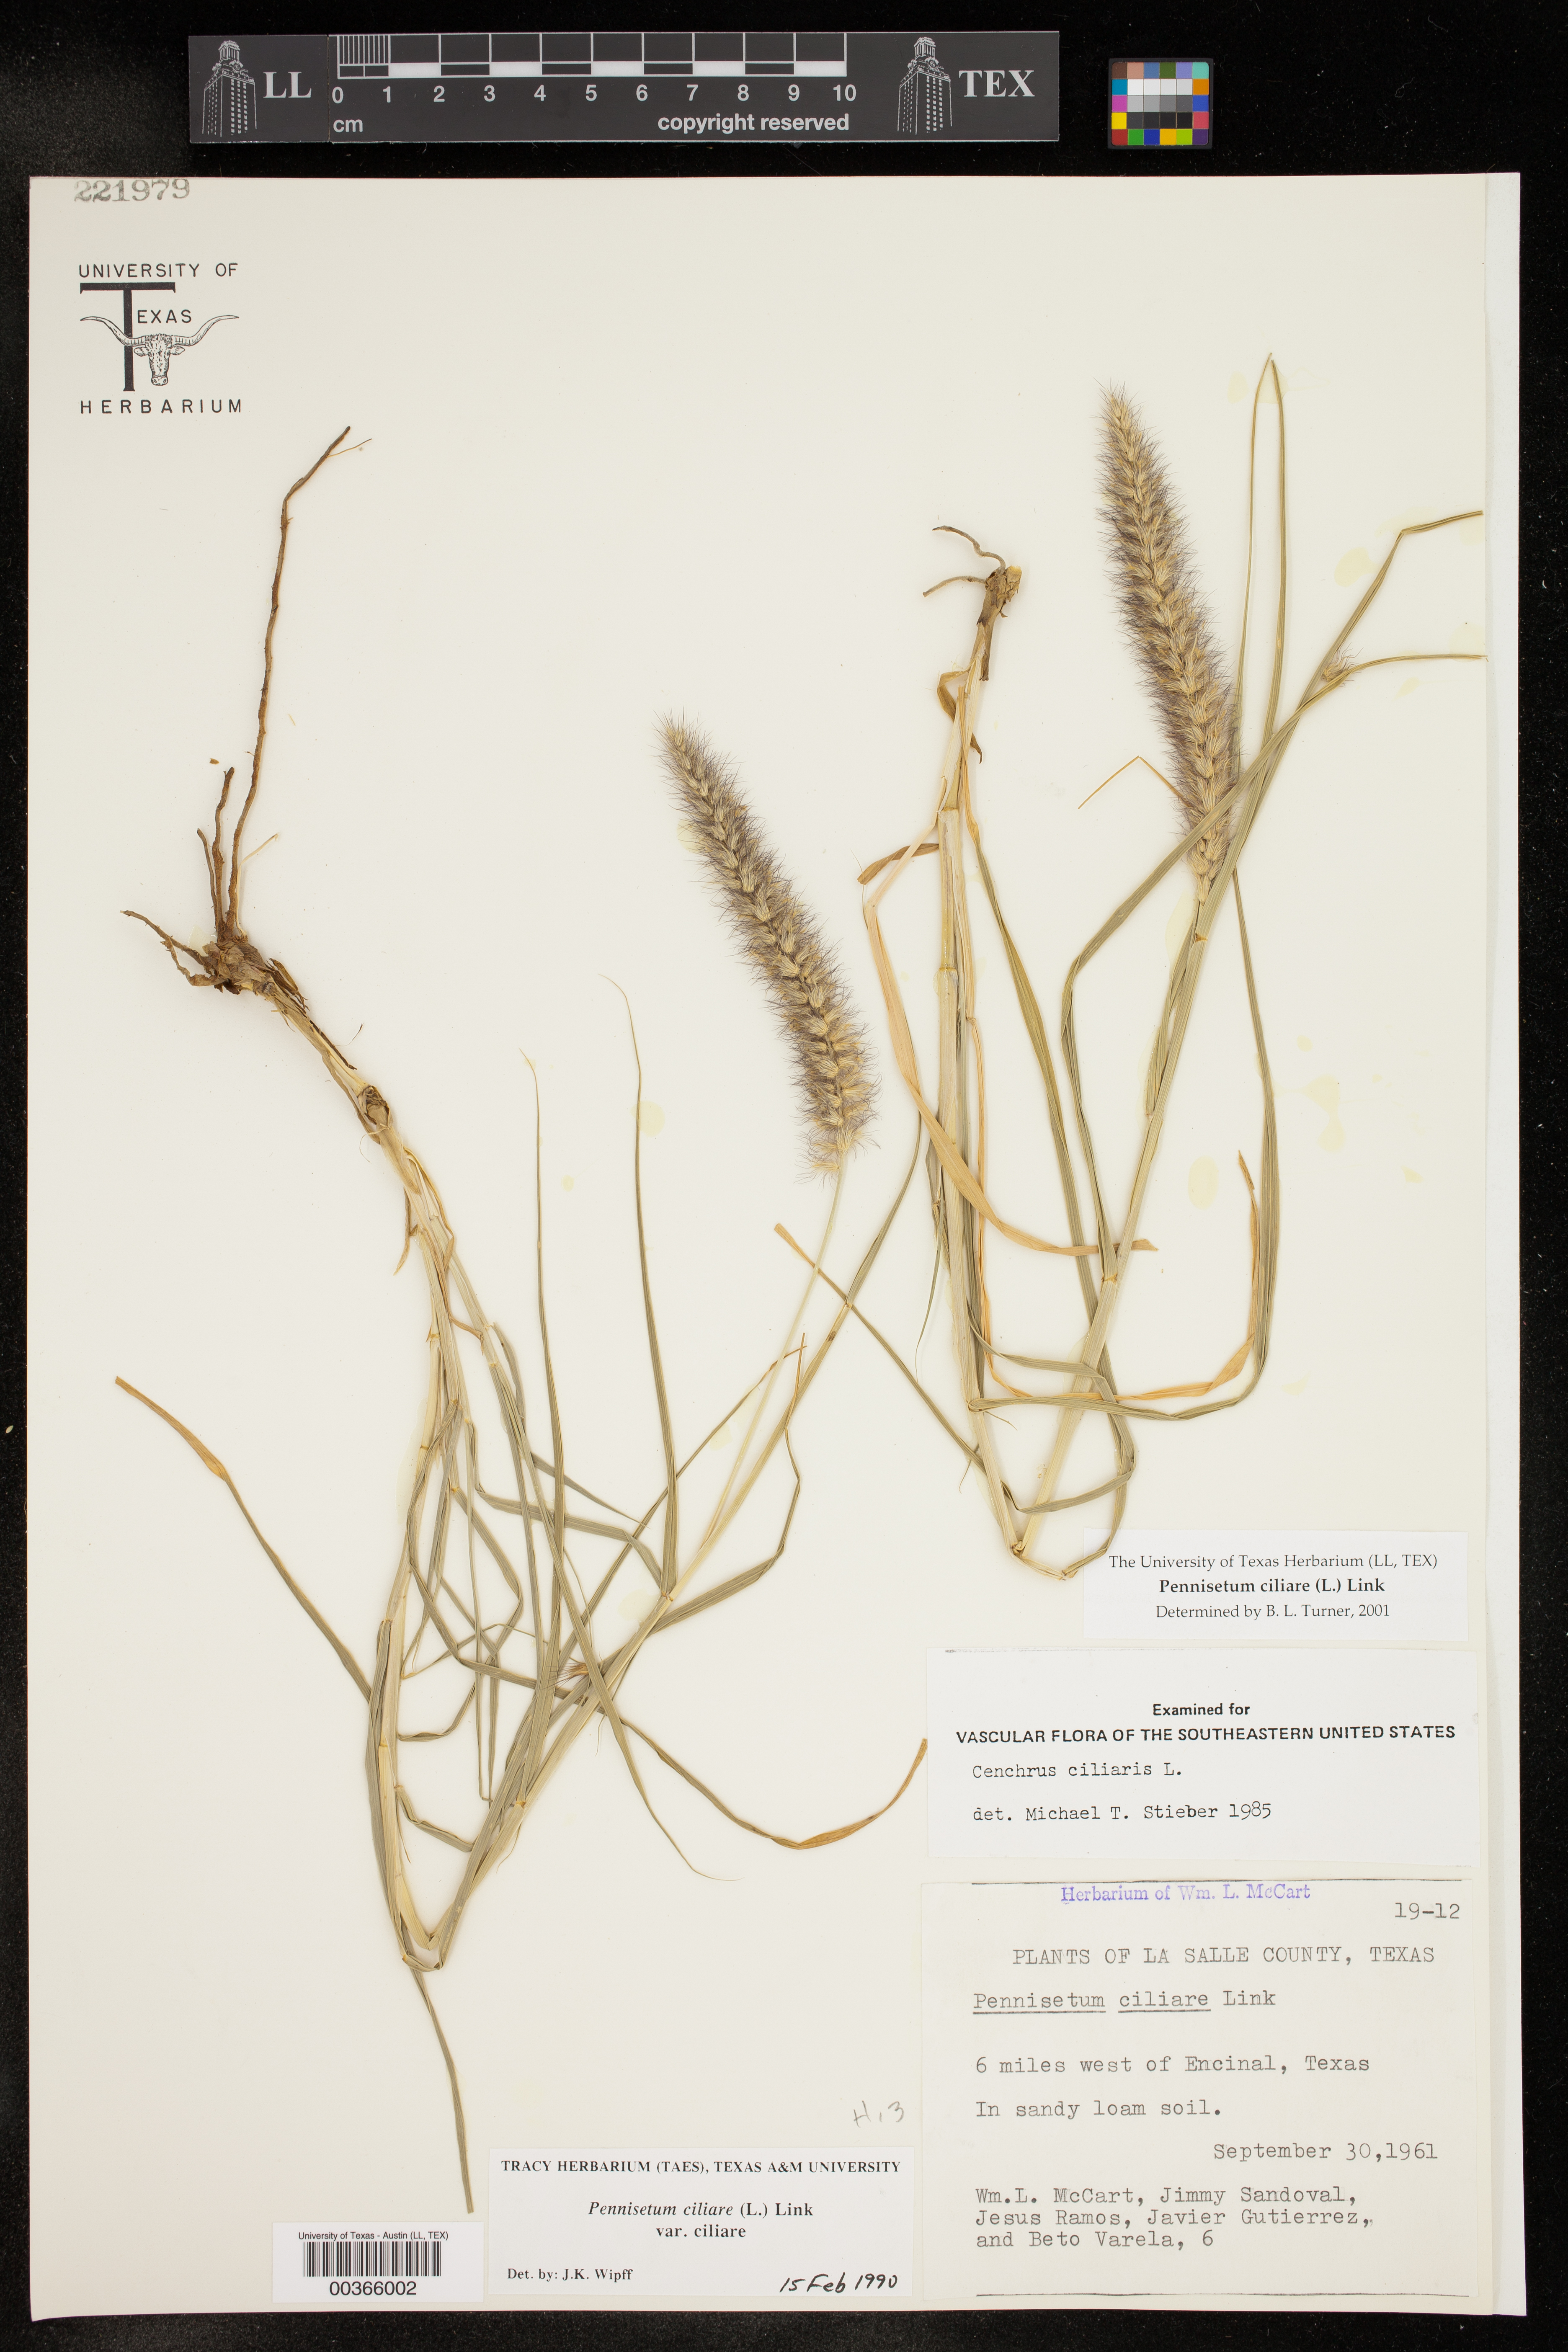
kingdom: Plantae
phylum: Tracheophyta
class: Liliopsida
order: Poales
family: Poaceae
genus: Cenchrus
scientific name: Cenchrus ciliaris
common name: Buffelgrass
